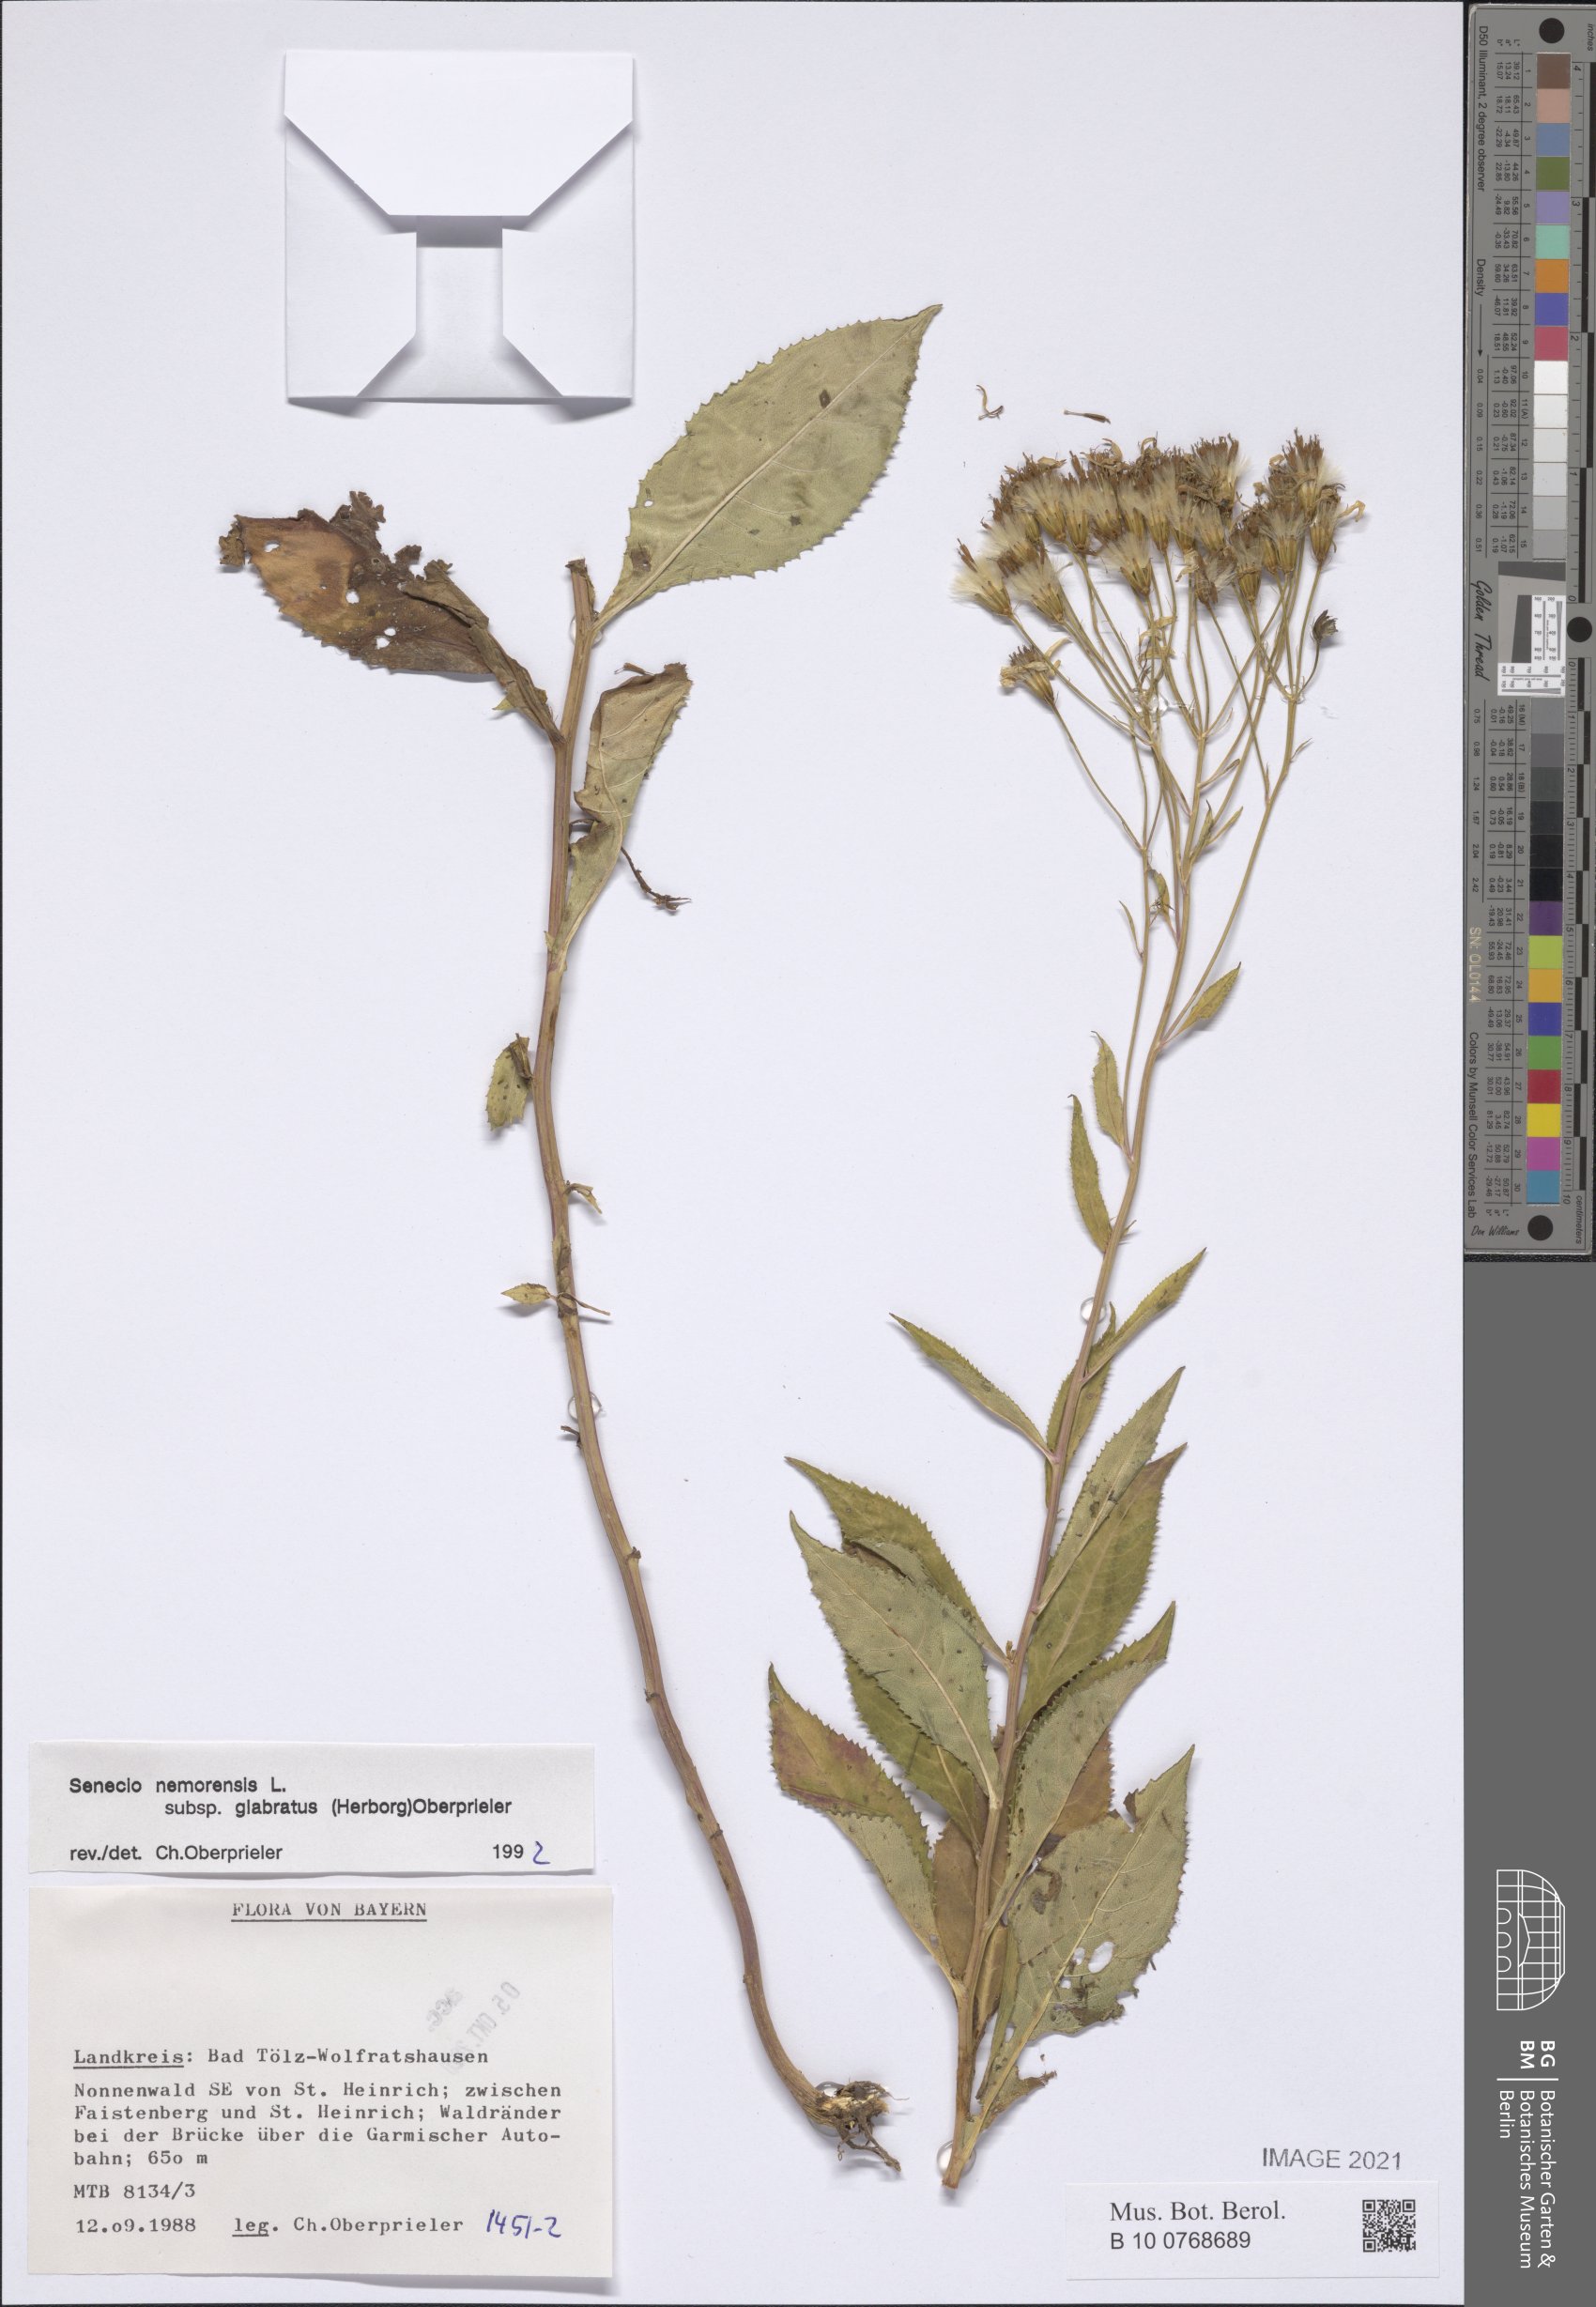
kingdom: Plantae
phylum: Tracheophyta
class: Magnoliopsida
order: Asterales
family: Asteraceae
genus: Senecio
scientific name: Senecio germanicus
